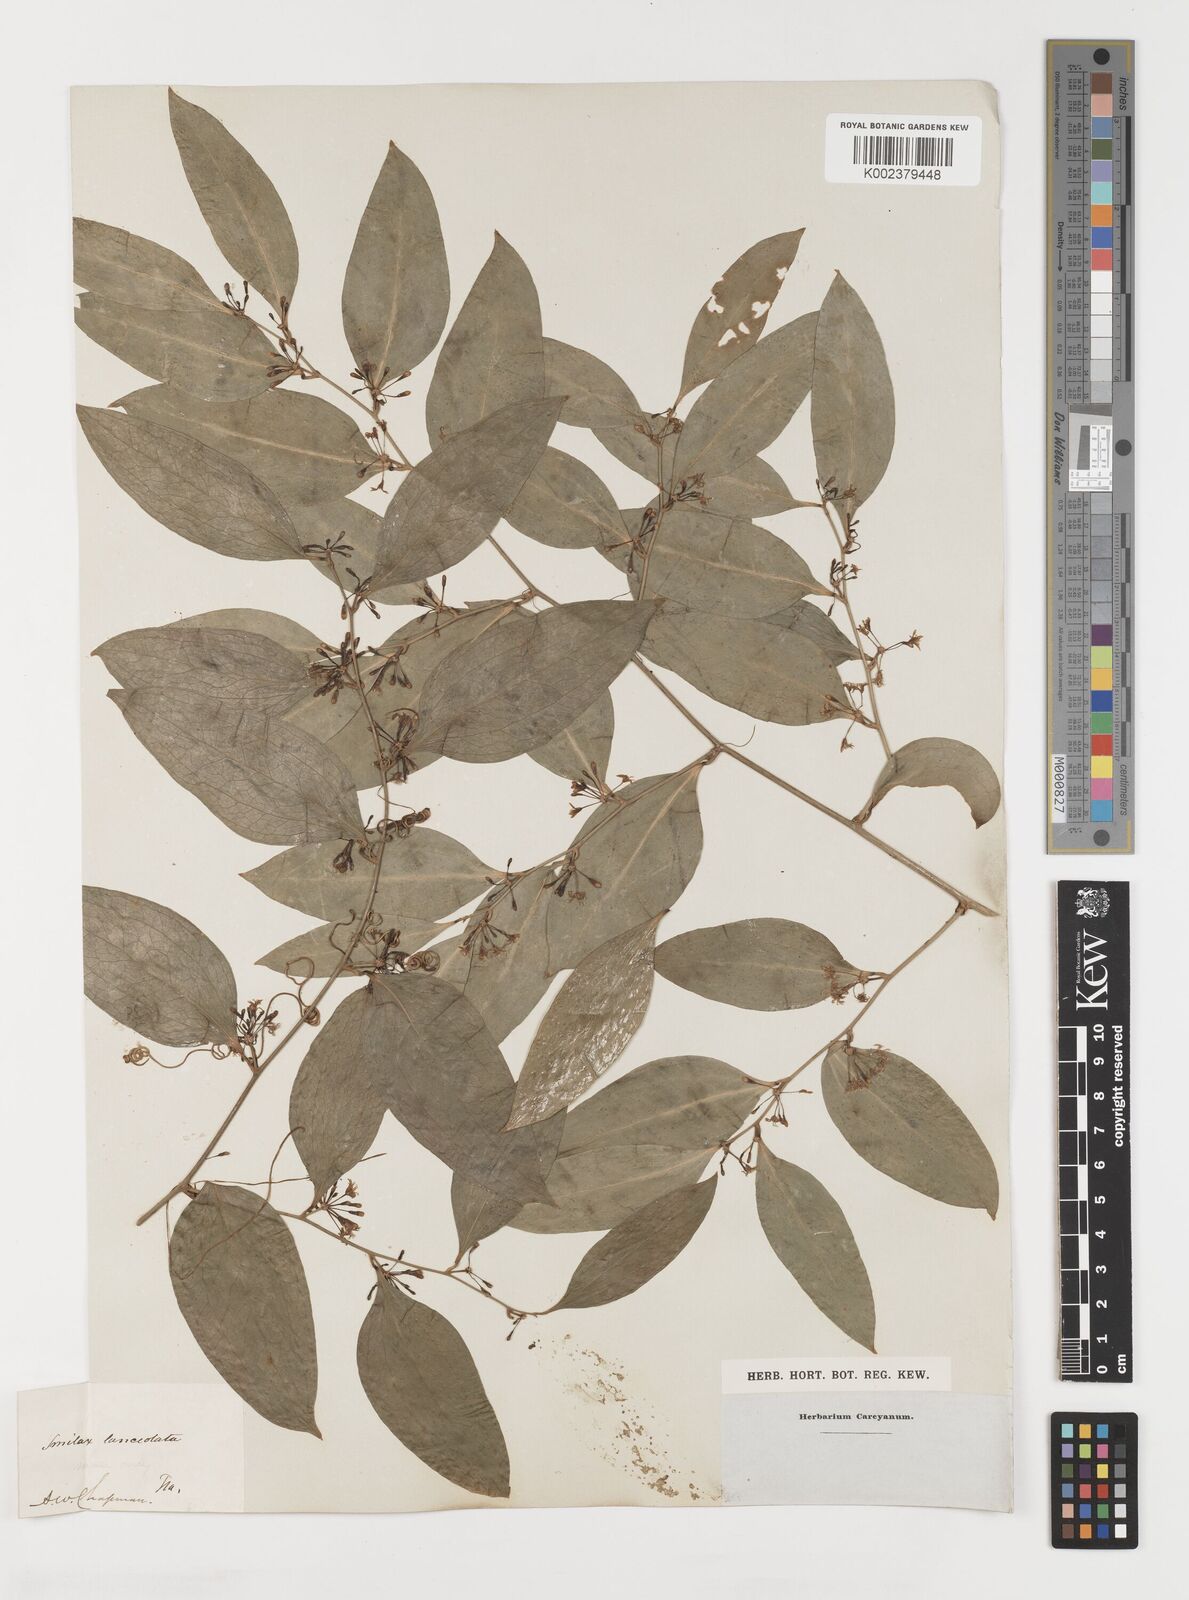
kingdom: Plantae
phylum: Tracheophyta
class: Liliopsida
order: Liliales
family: Smilacaceae
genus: Smilax
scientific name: Smilax laurifolia
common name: Bamboovine
